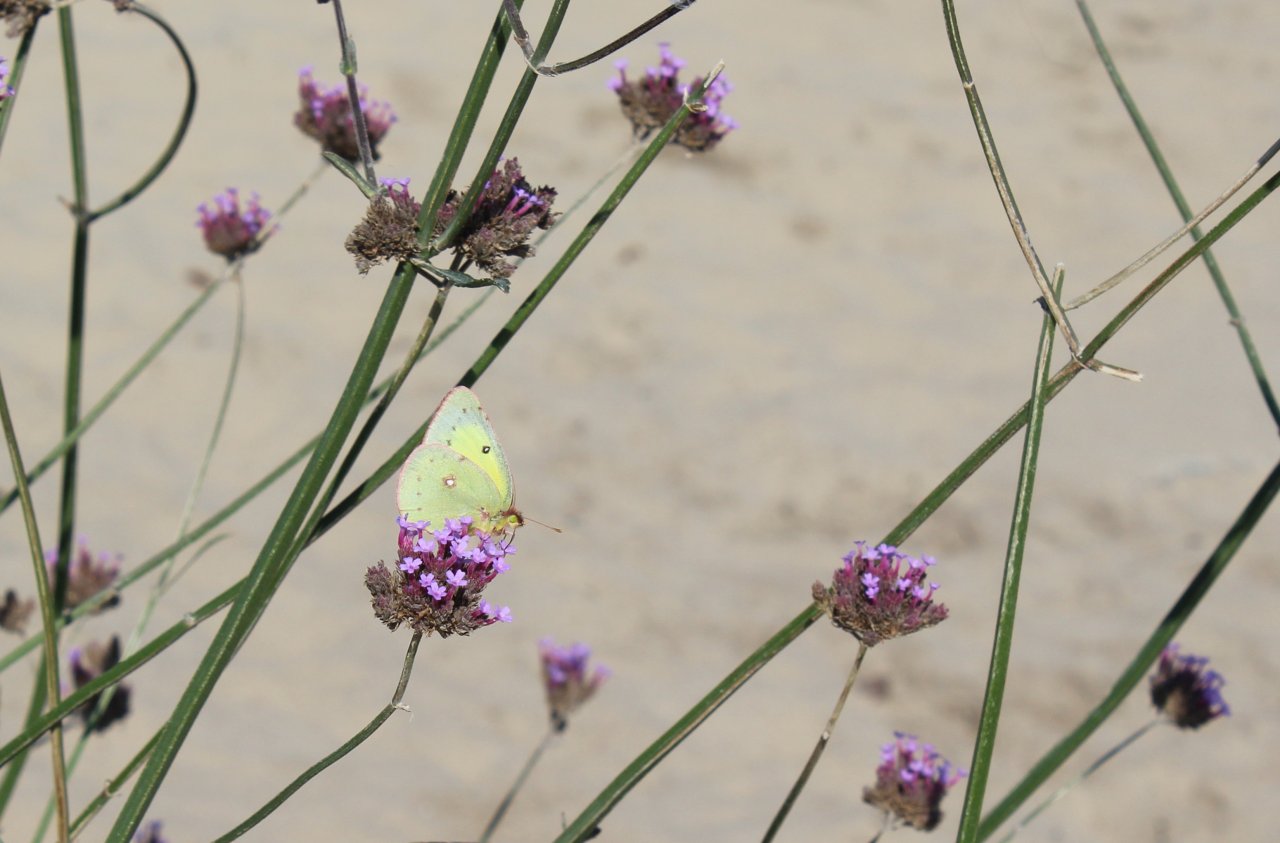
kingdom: Animalia
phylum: Arthropoda
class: Insecta
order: Lepidoptera
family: Pieridae
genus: Colias
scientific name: Colias philodice
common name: Clouded Sulphur
